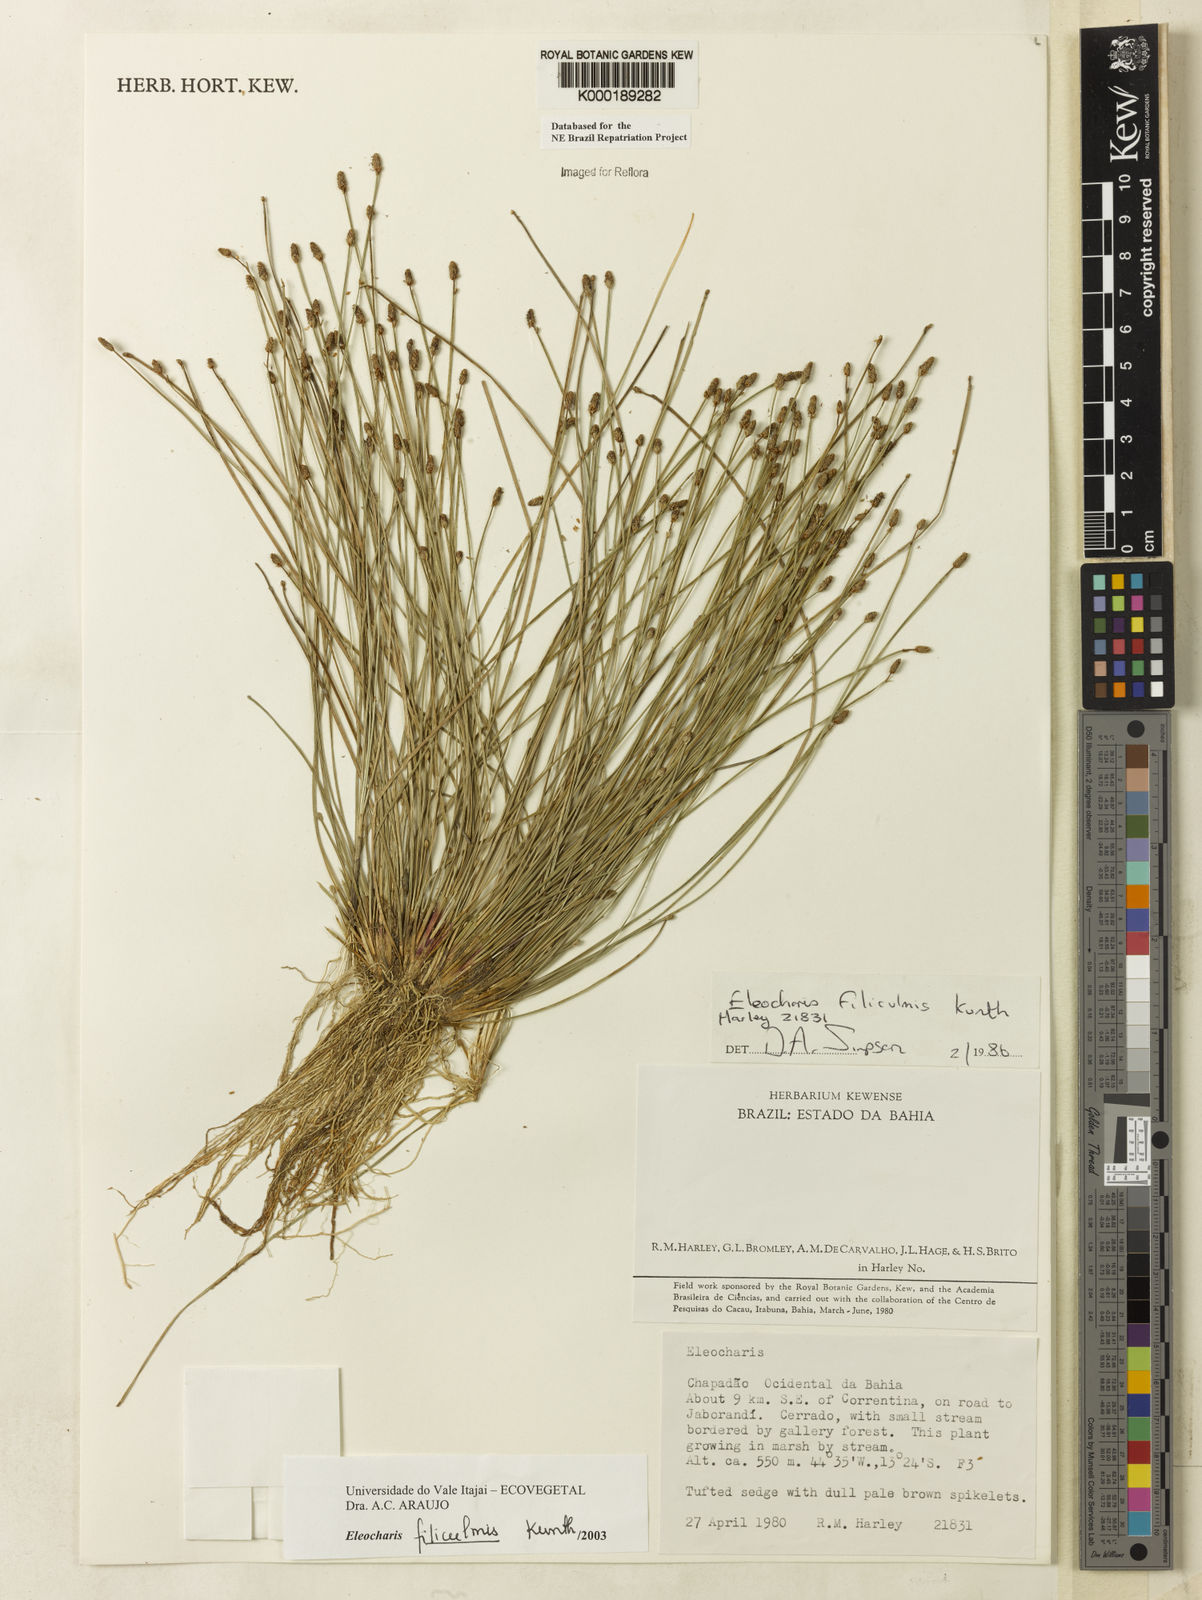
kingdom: Plantae
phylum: Tracheophyta
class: Liliopsida
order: Poales
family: Cyperaceae
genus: Eleocharis
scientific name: Eleocharis filiculmis
